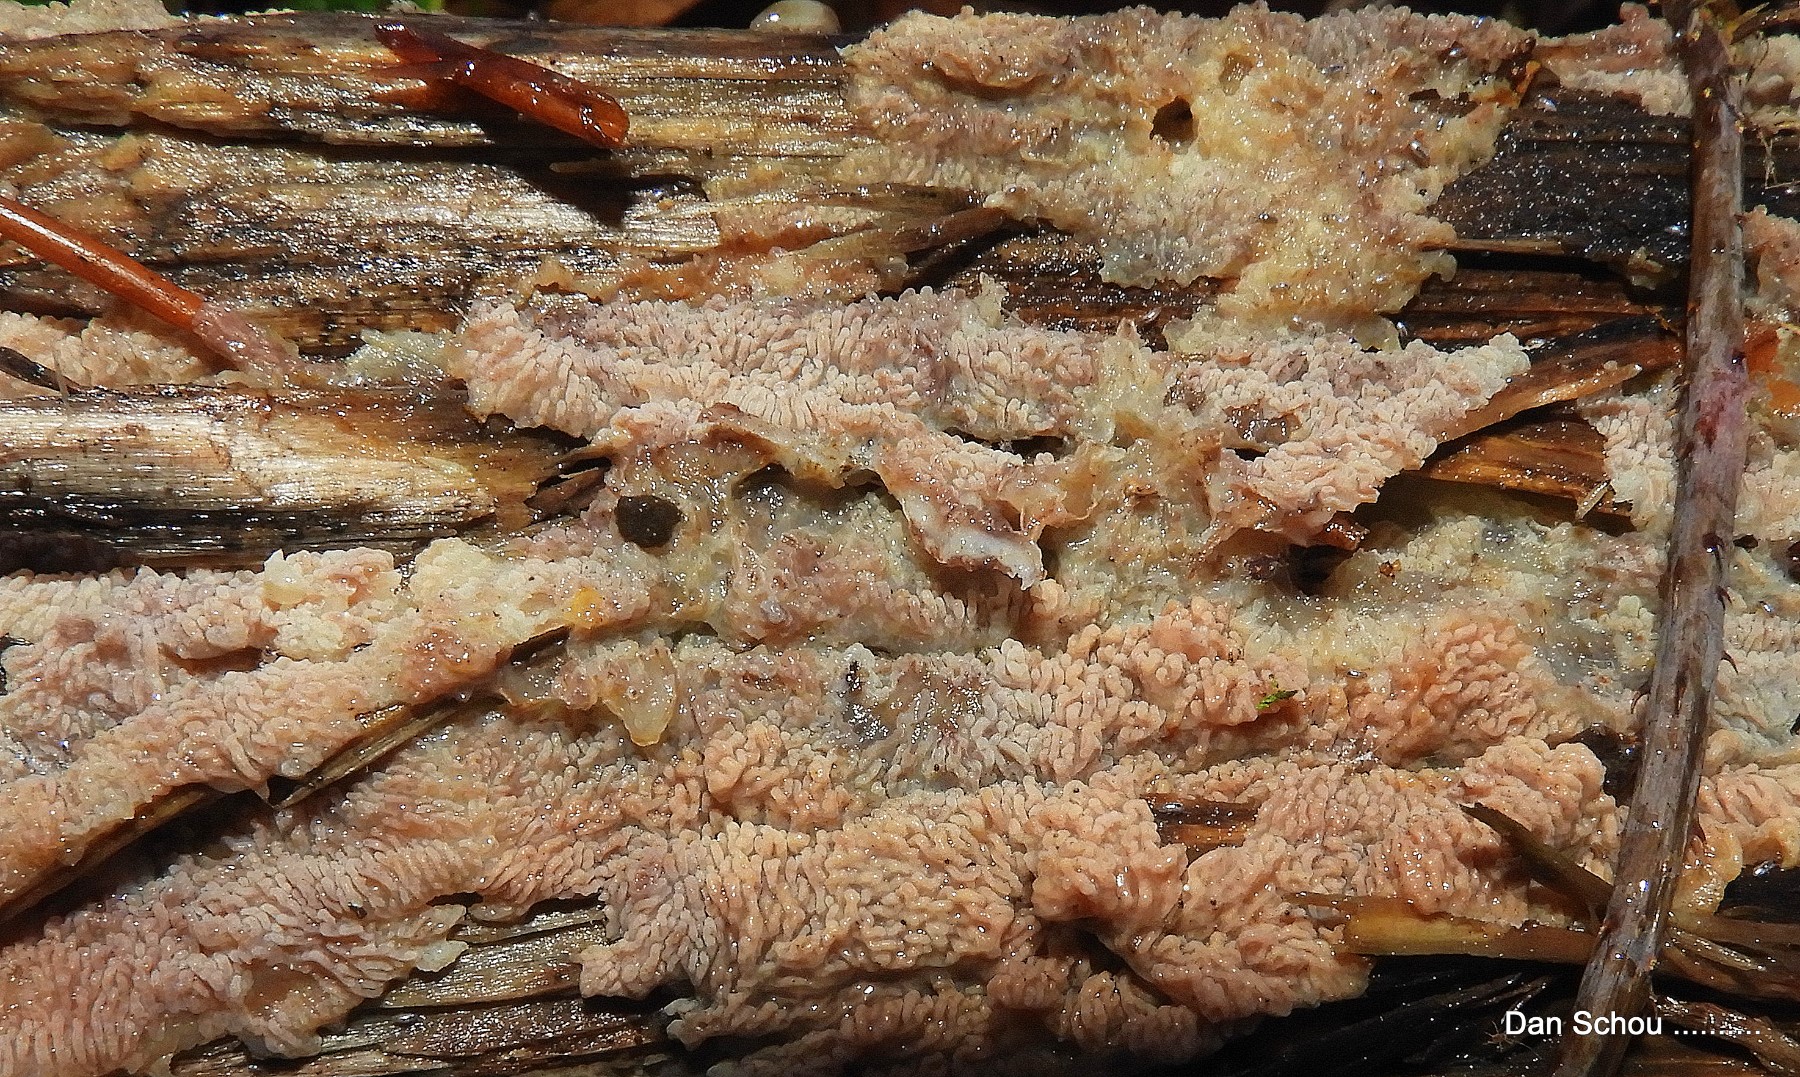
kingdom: Fungi
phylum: Basidiomycota
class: Agaricomycetes
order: Polyporales
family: Meruliaceae
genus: Phlebia
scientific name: Phlebia radiata
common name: stråle-åresvamp
